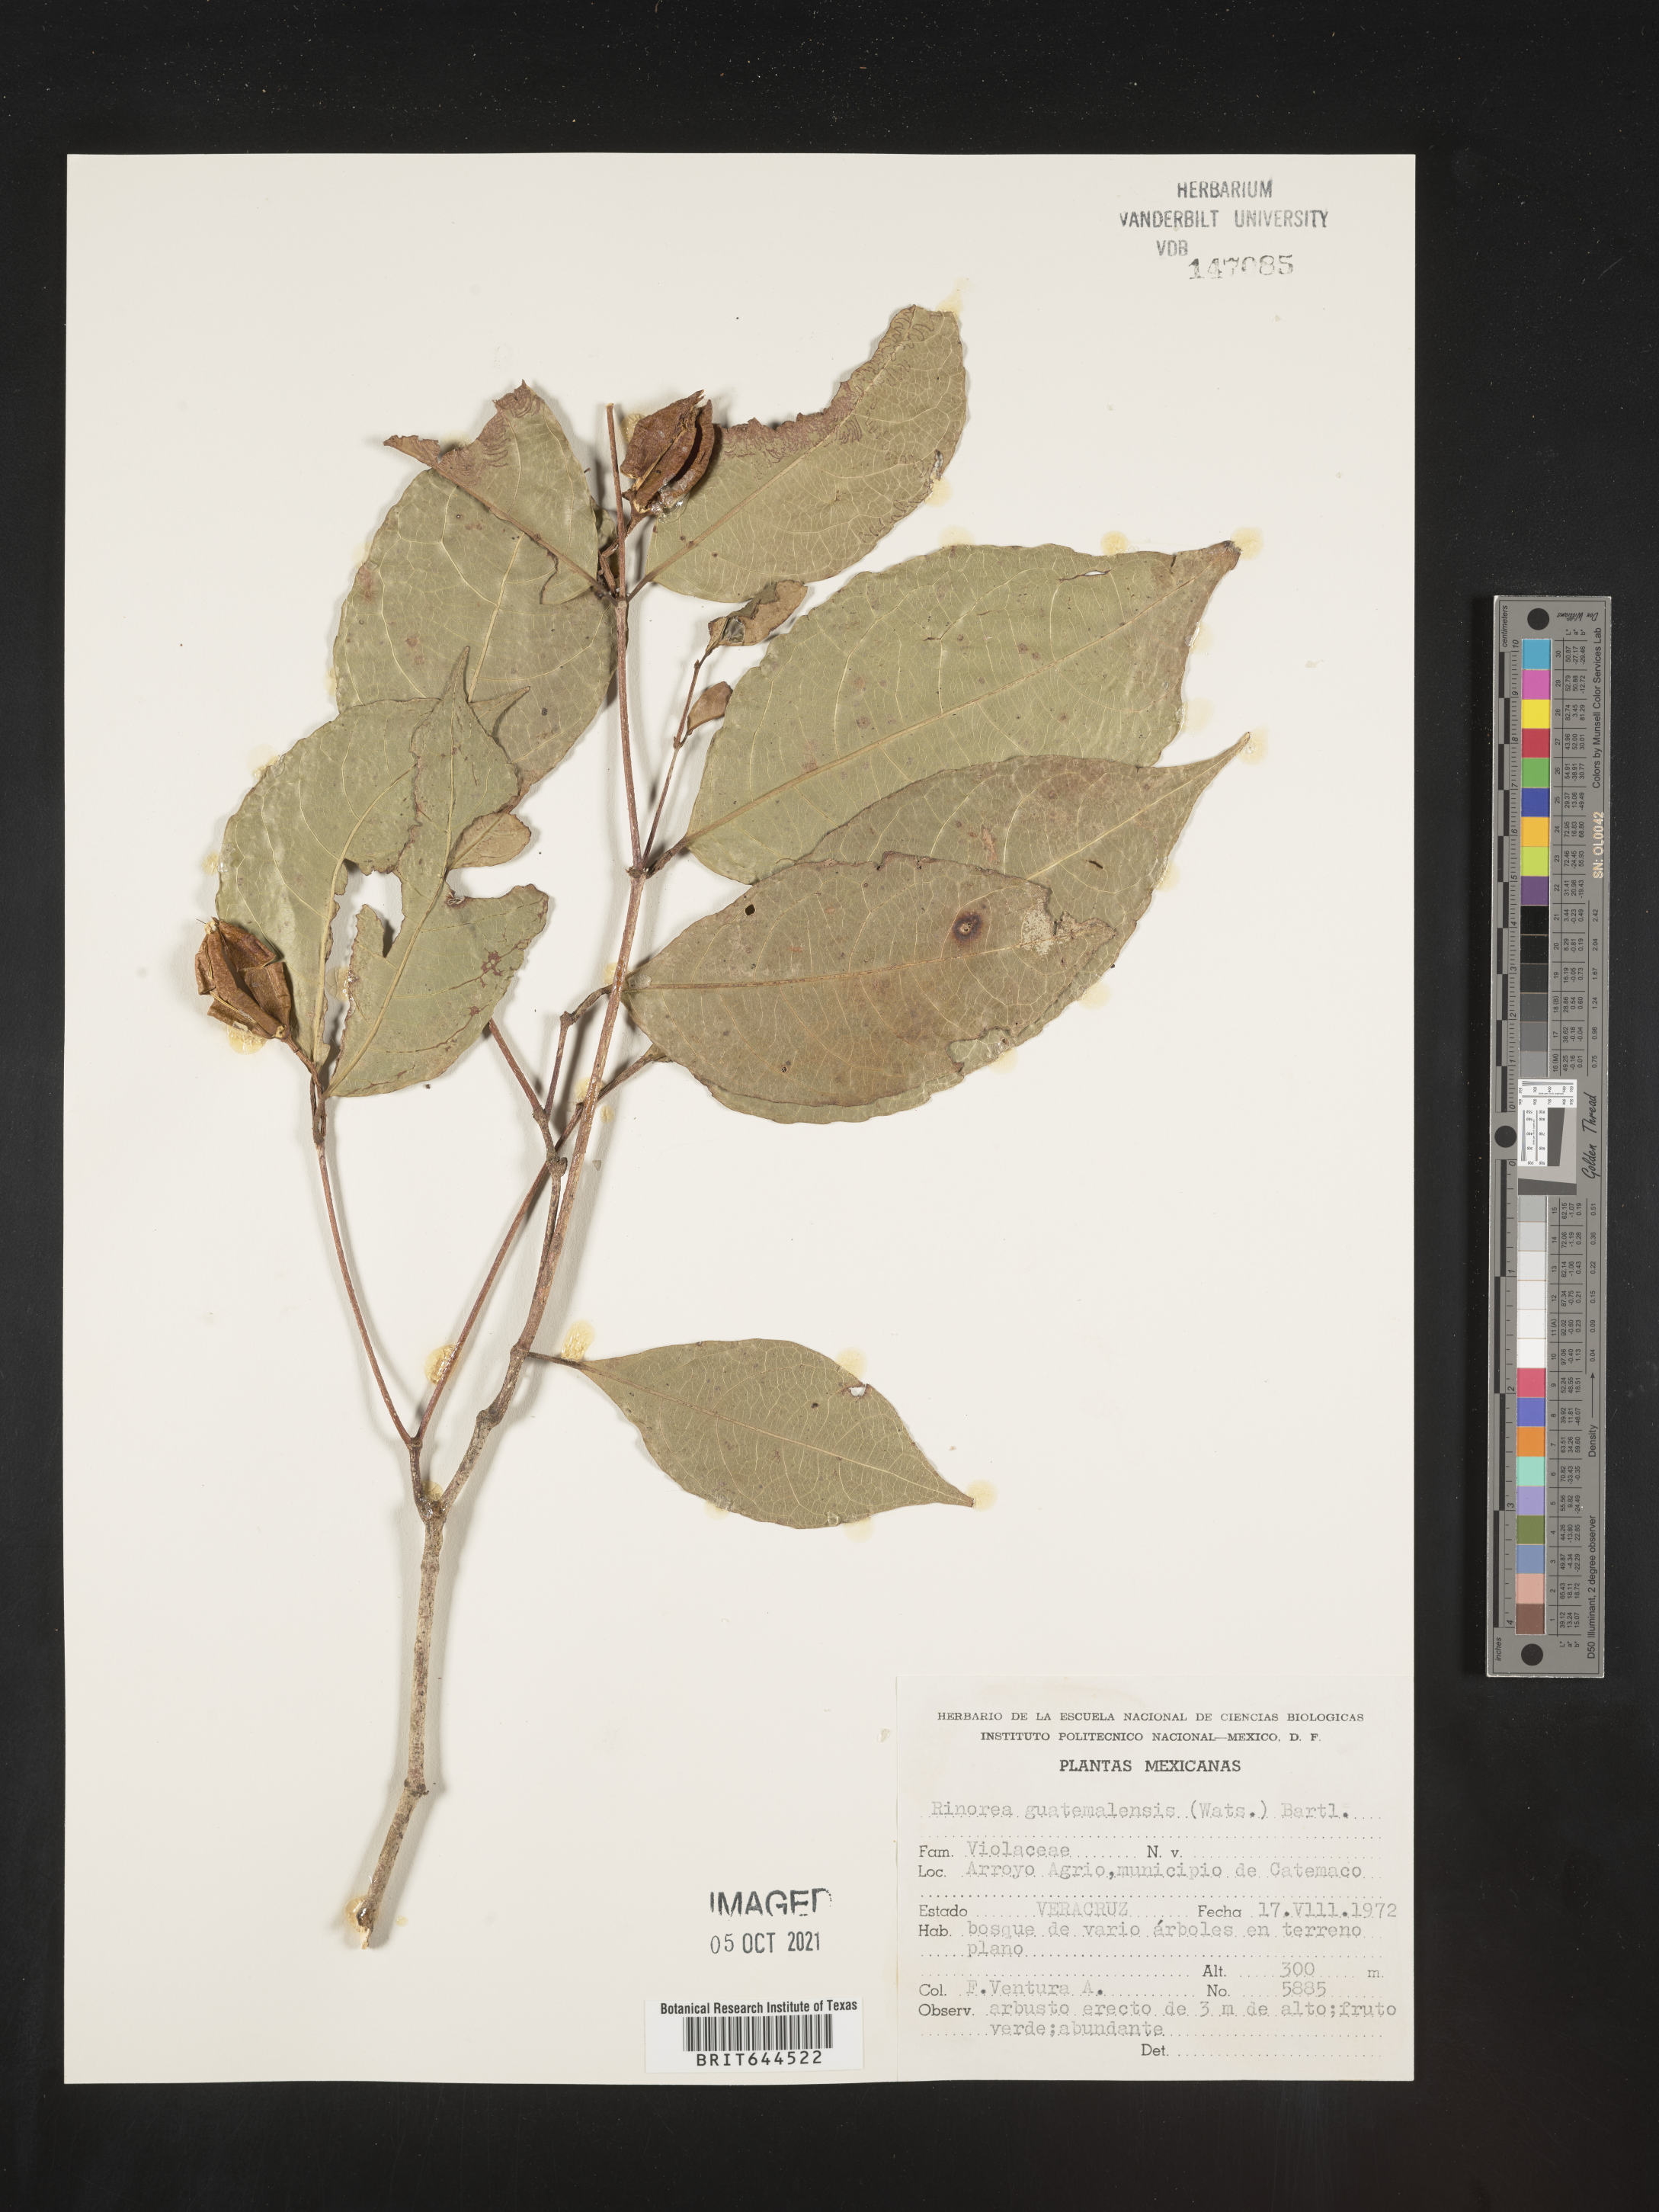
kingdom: Plantae
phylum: Tracheophyta
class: Magnoliopsida
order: Malpighiales
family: Violaceae
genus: Rinorea
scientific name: Rinorea
